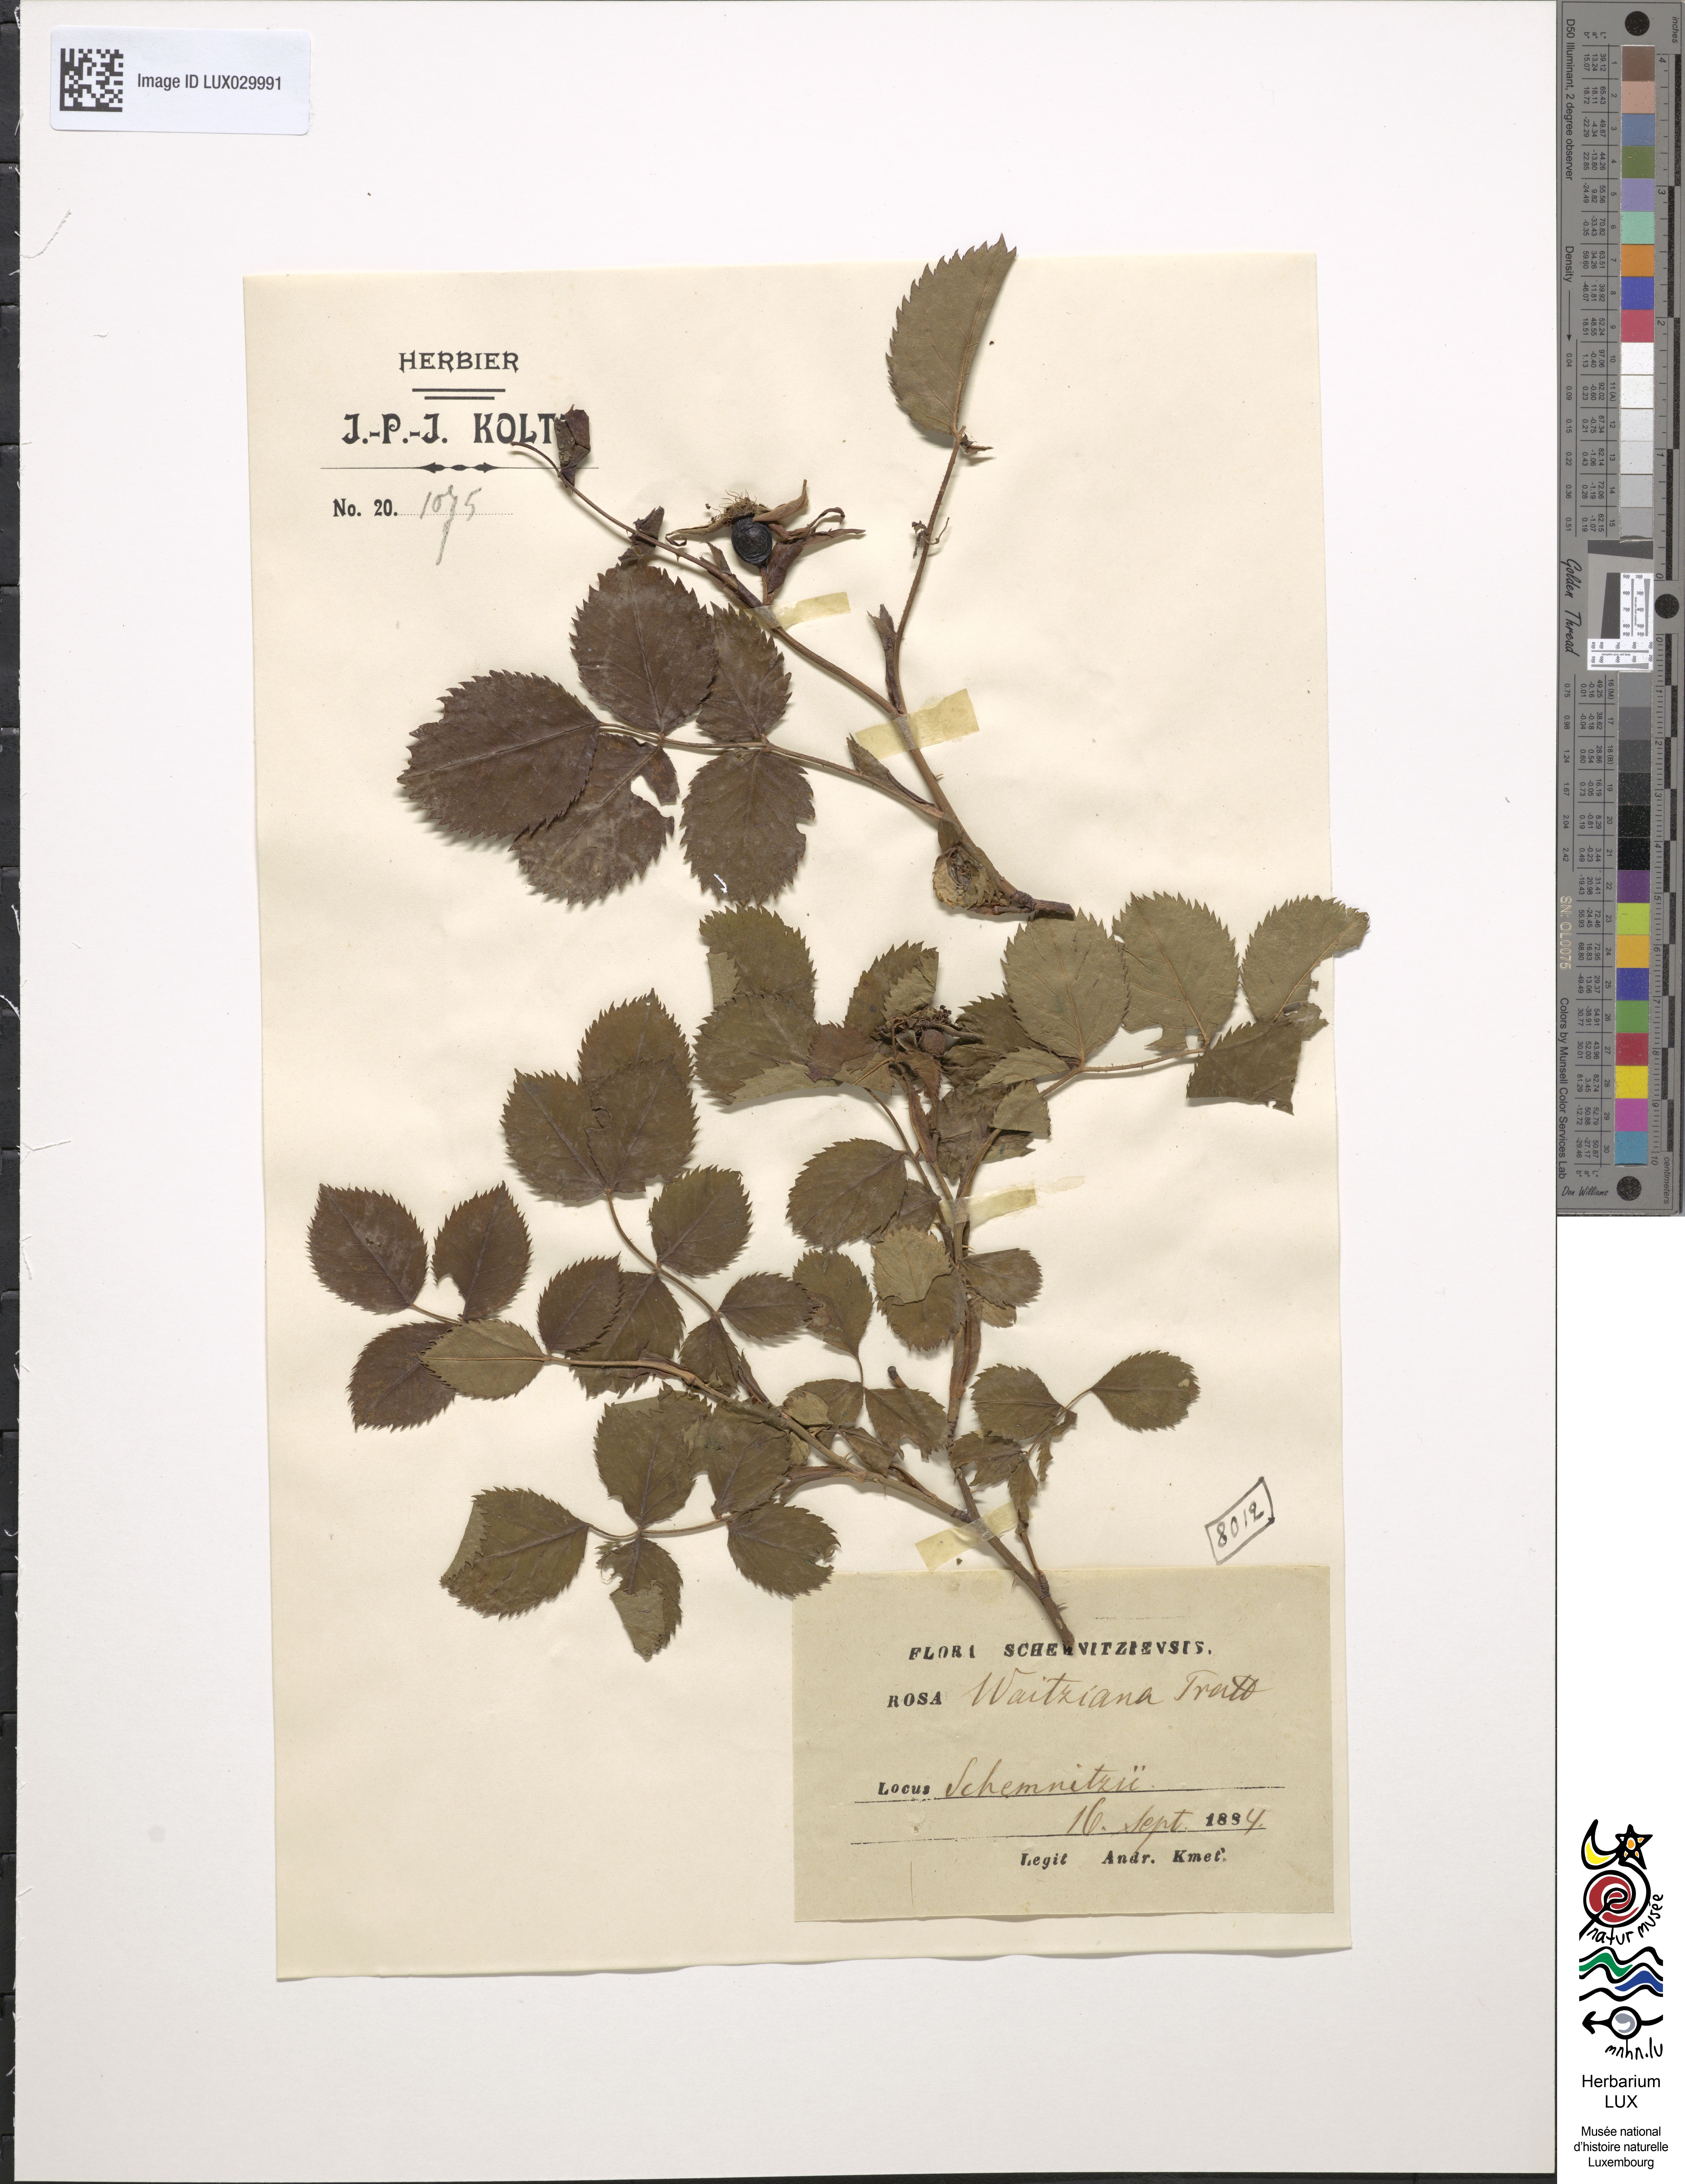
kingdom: Plantae
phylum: Tracheophyta
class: Magnoliopsida
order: Rosales
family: Rosaceae
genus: Rosa
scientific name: Rosa kosinsciana
